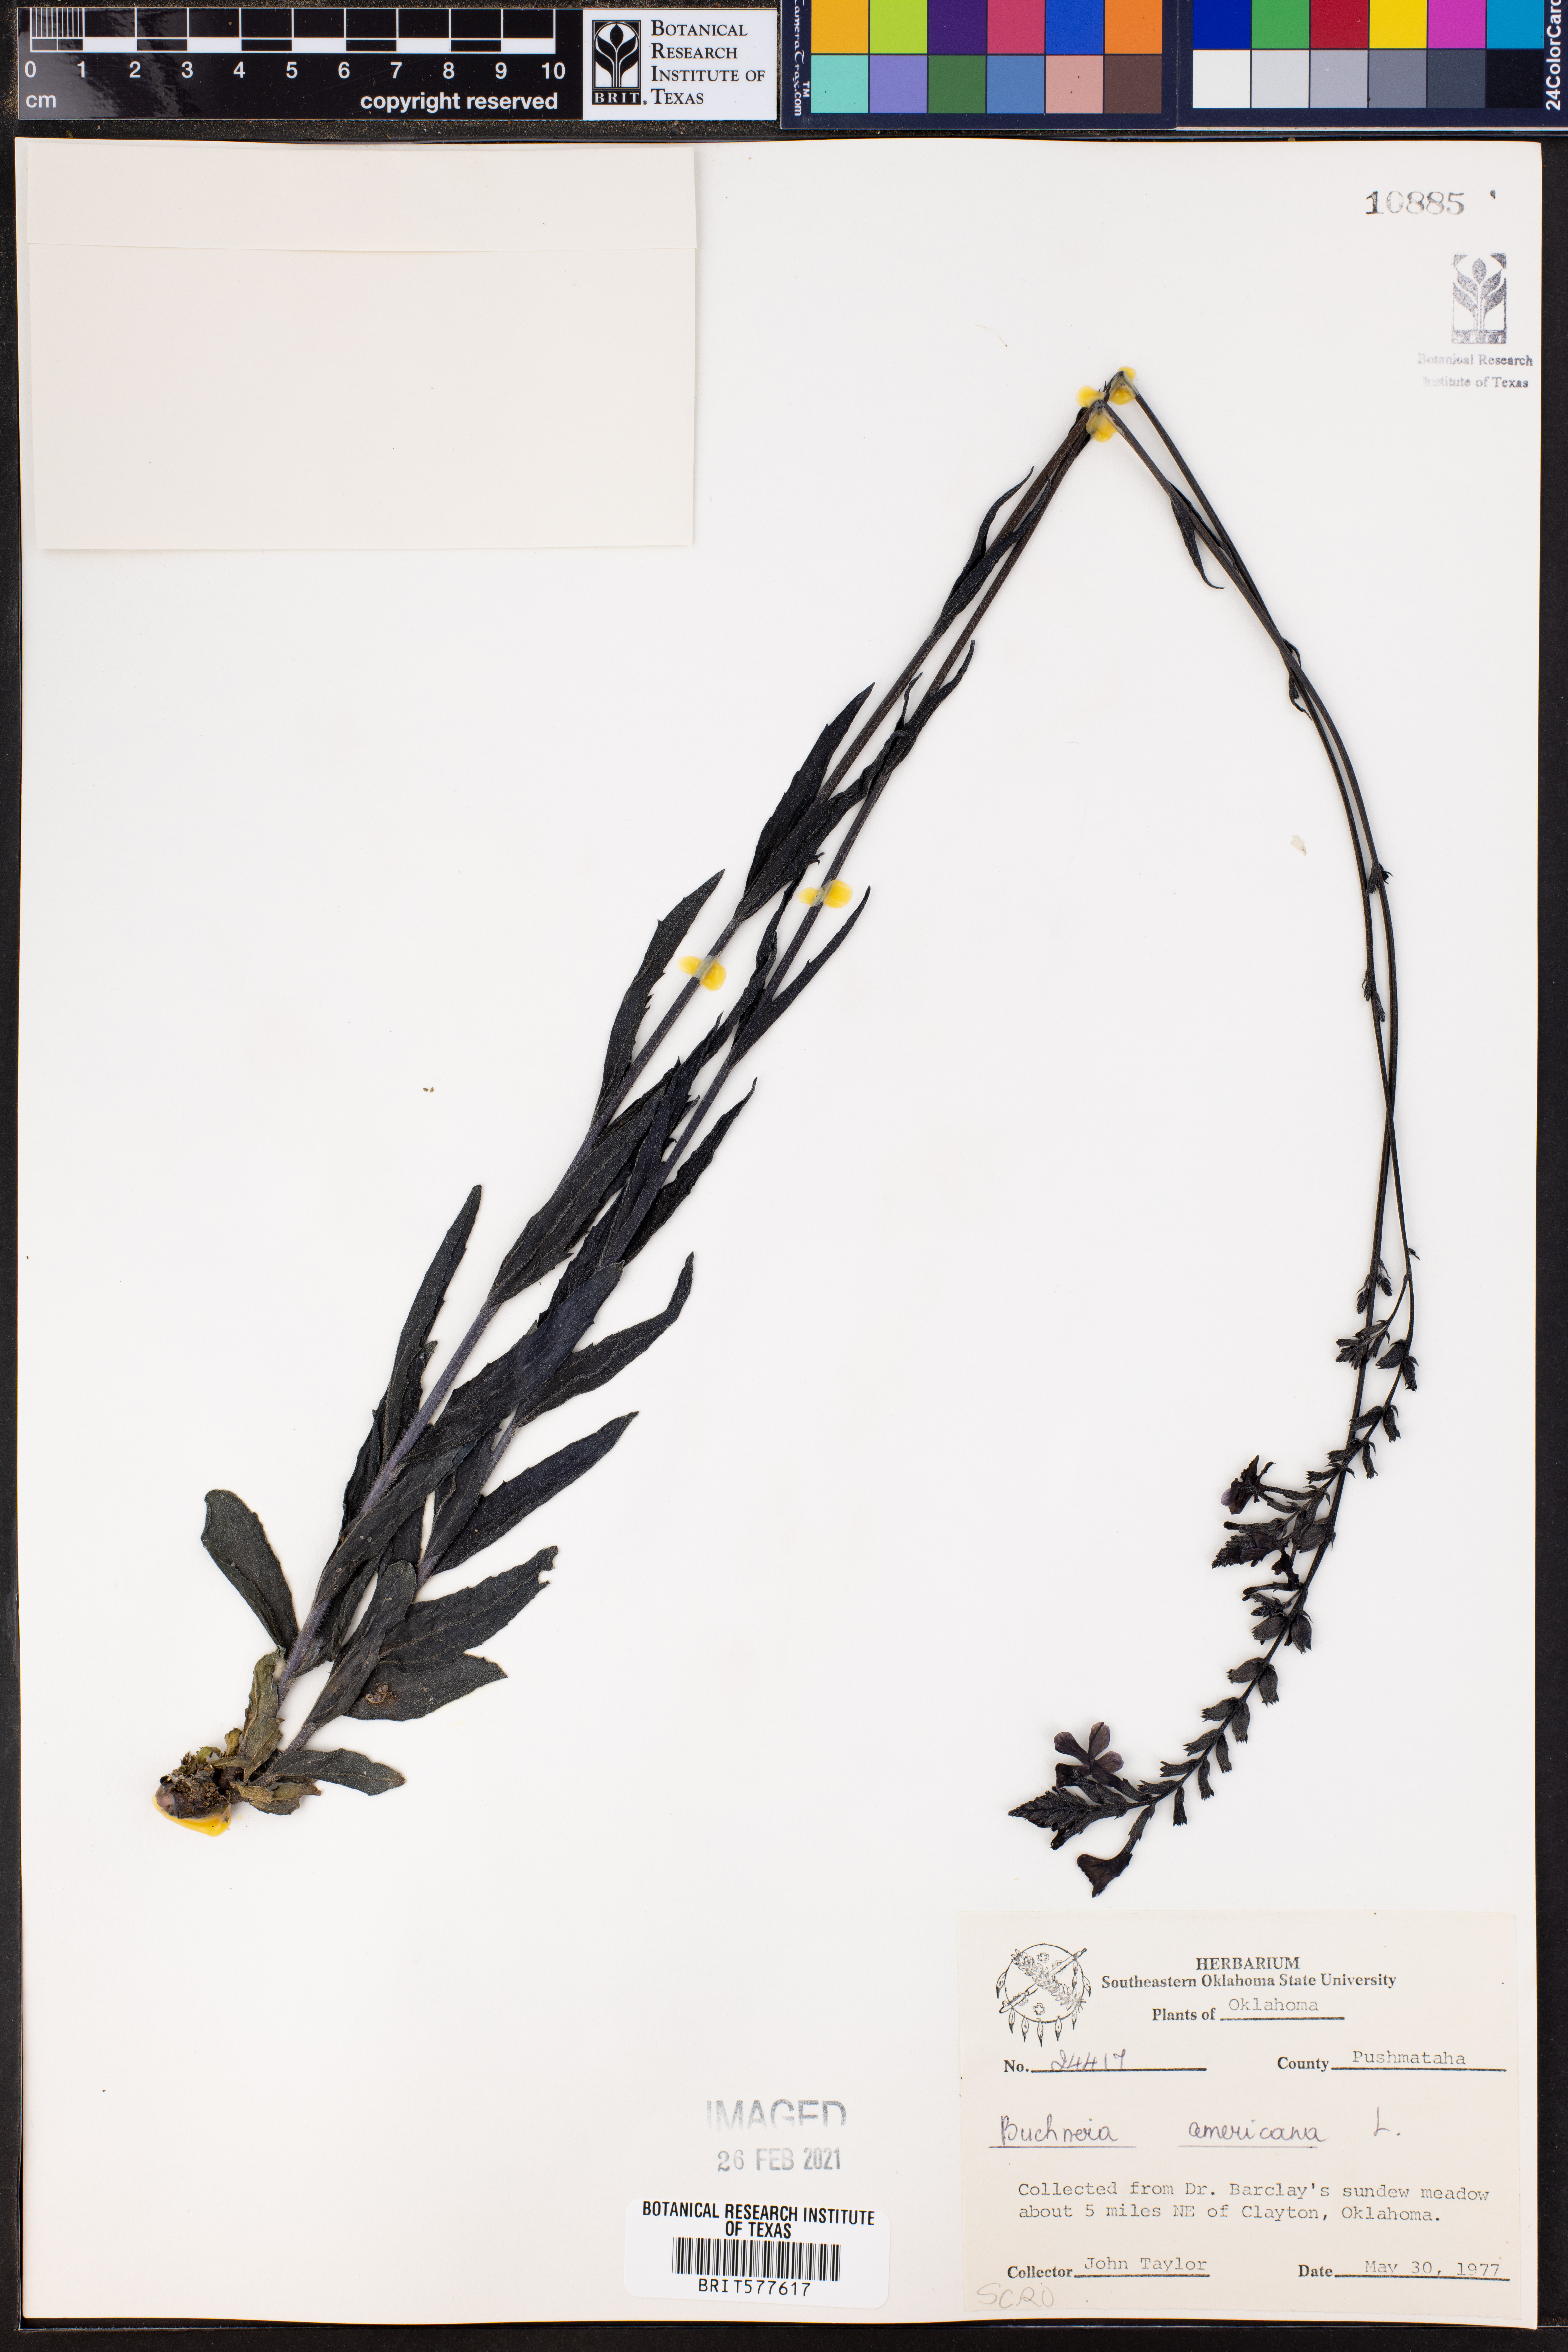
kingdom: Plantae
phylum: Tracheophyta
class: Magnoliopsida
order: Lamiales
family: Orobanchaceae
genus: Buchnera
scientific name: Buchnera americana
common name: American bluehearts
